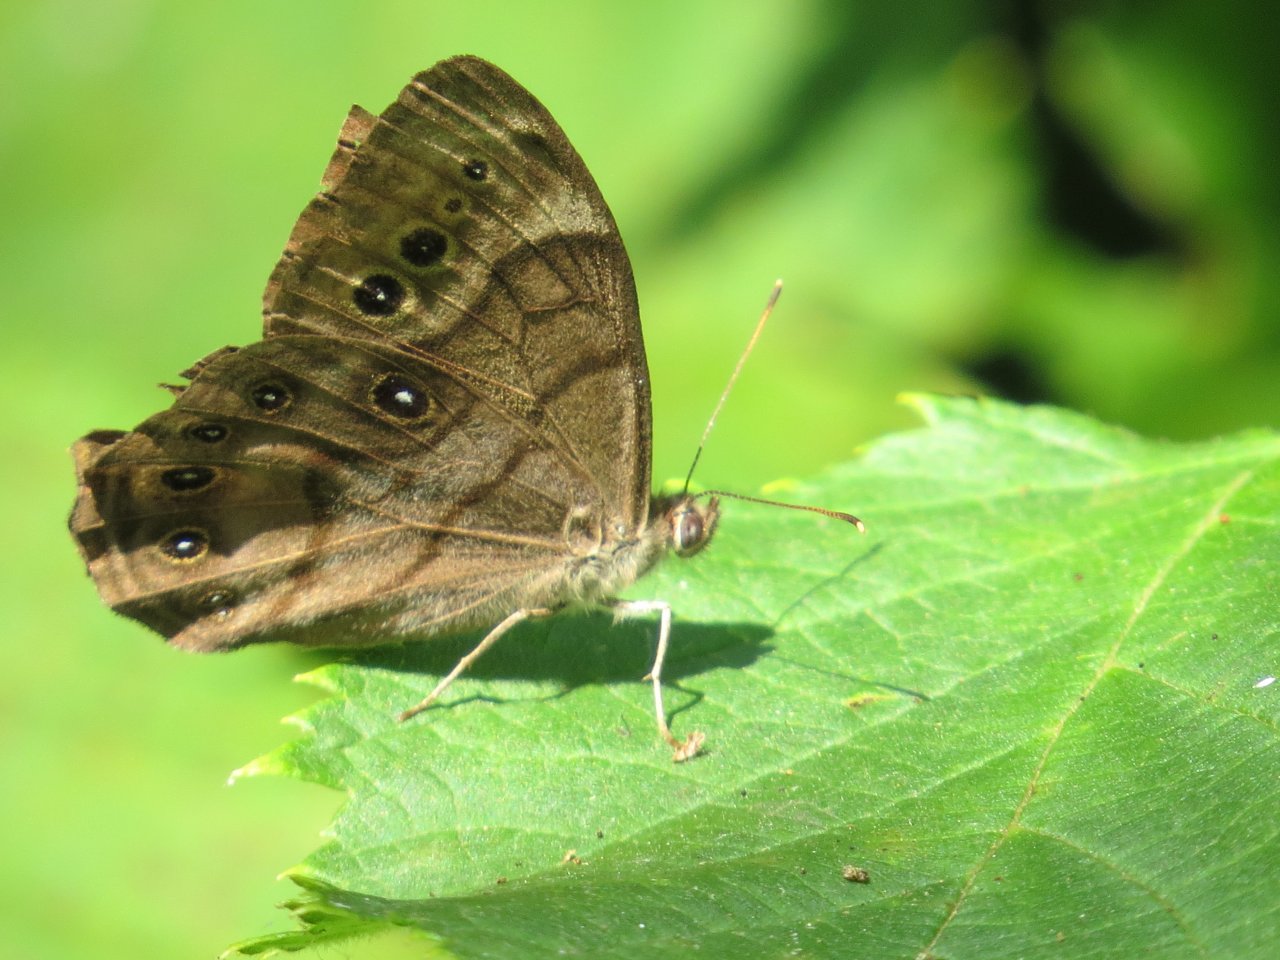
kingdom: Animalia
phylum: Arthropoda
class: Insecta
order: Lepidoptera
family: Nymphalidae
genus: Lethe
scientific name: Lethe anthedon
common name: Northern Pearly-Eye
